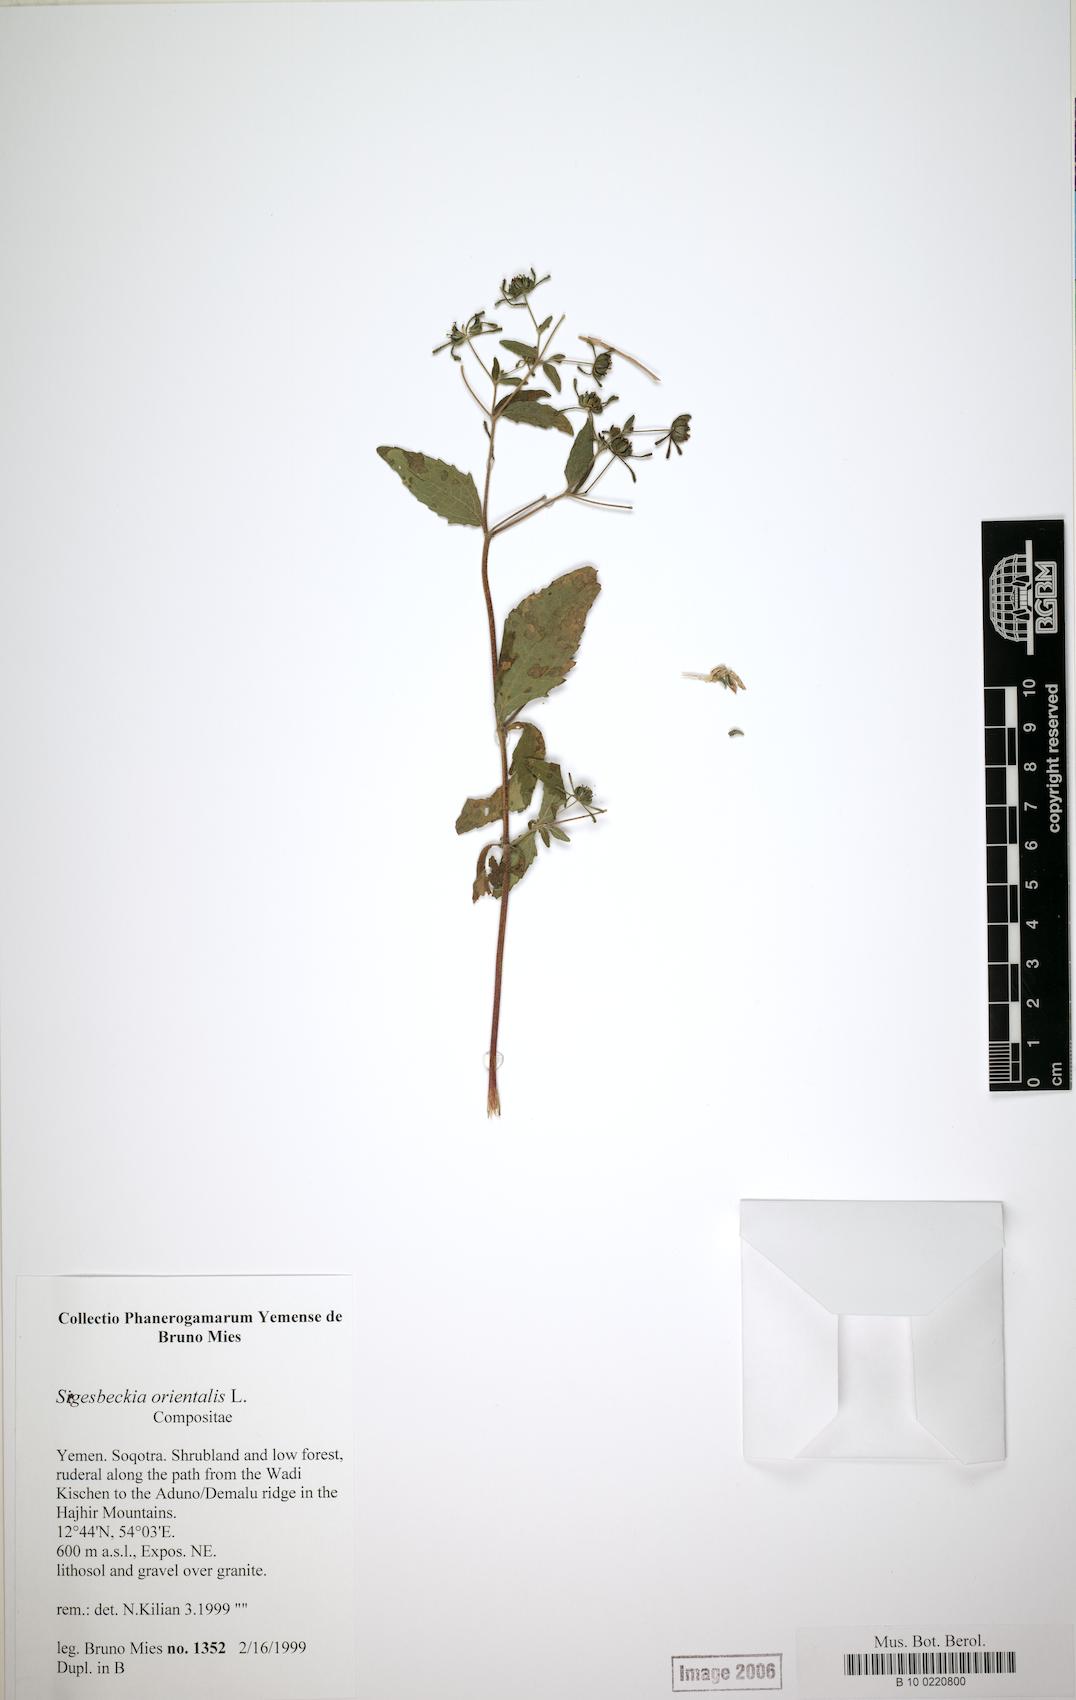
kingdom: Plantae
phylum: Tracheophyta
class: Magnoliopsida
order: Caryophyllales
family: Caryophyllaceae
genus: Arenaria
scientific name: Arenaria leptoclados
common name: Thyme-leaved sandwort
